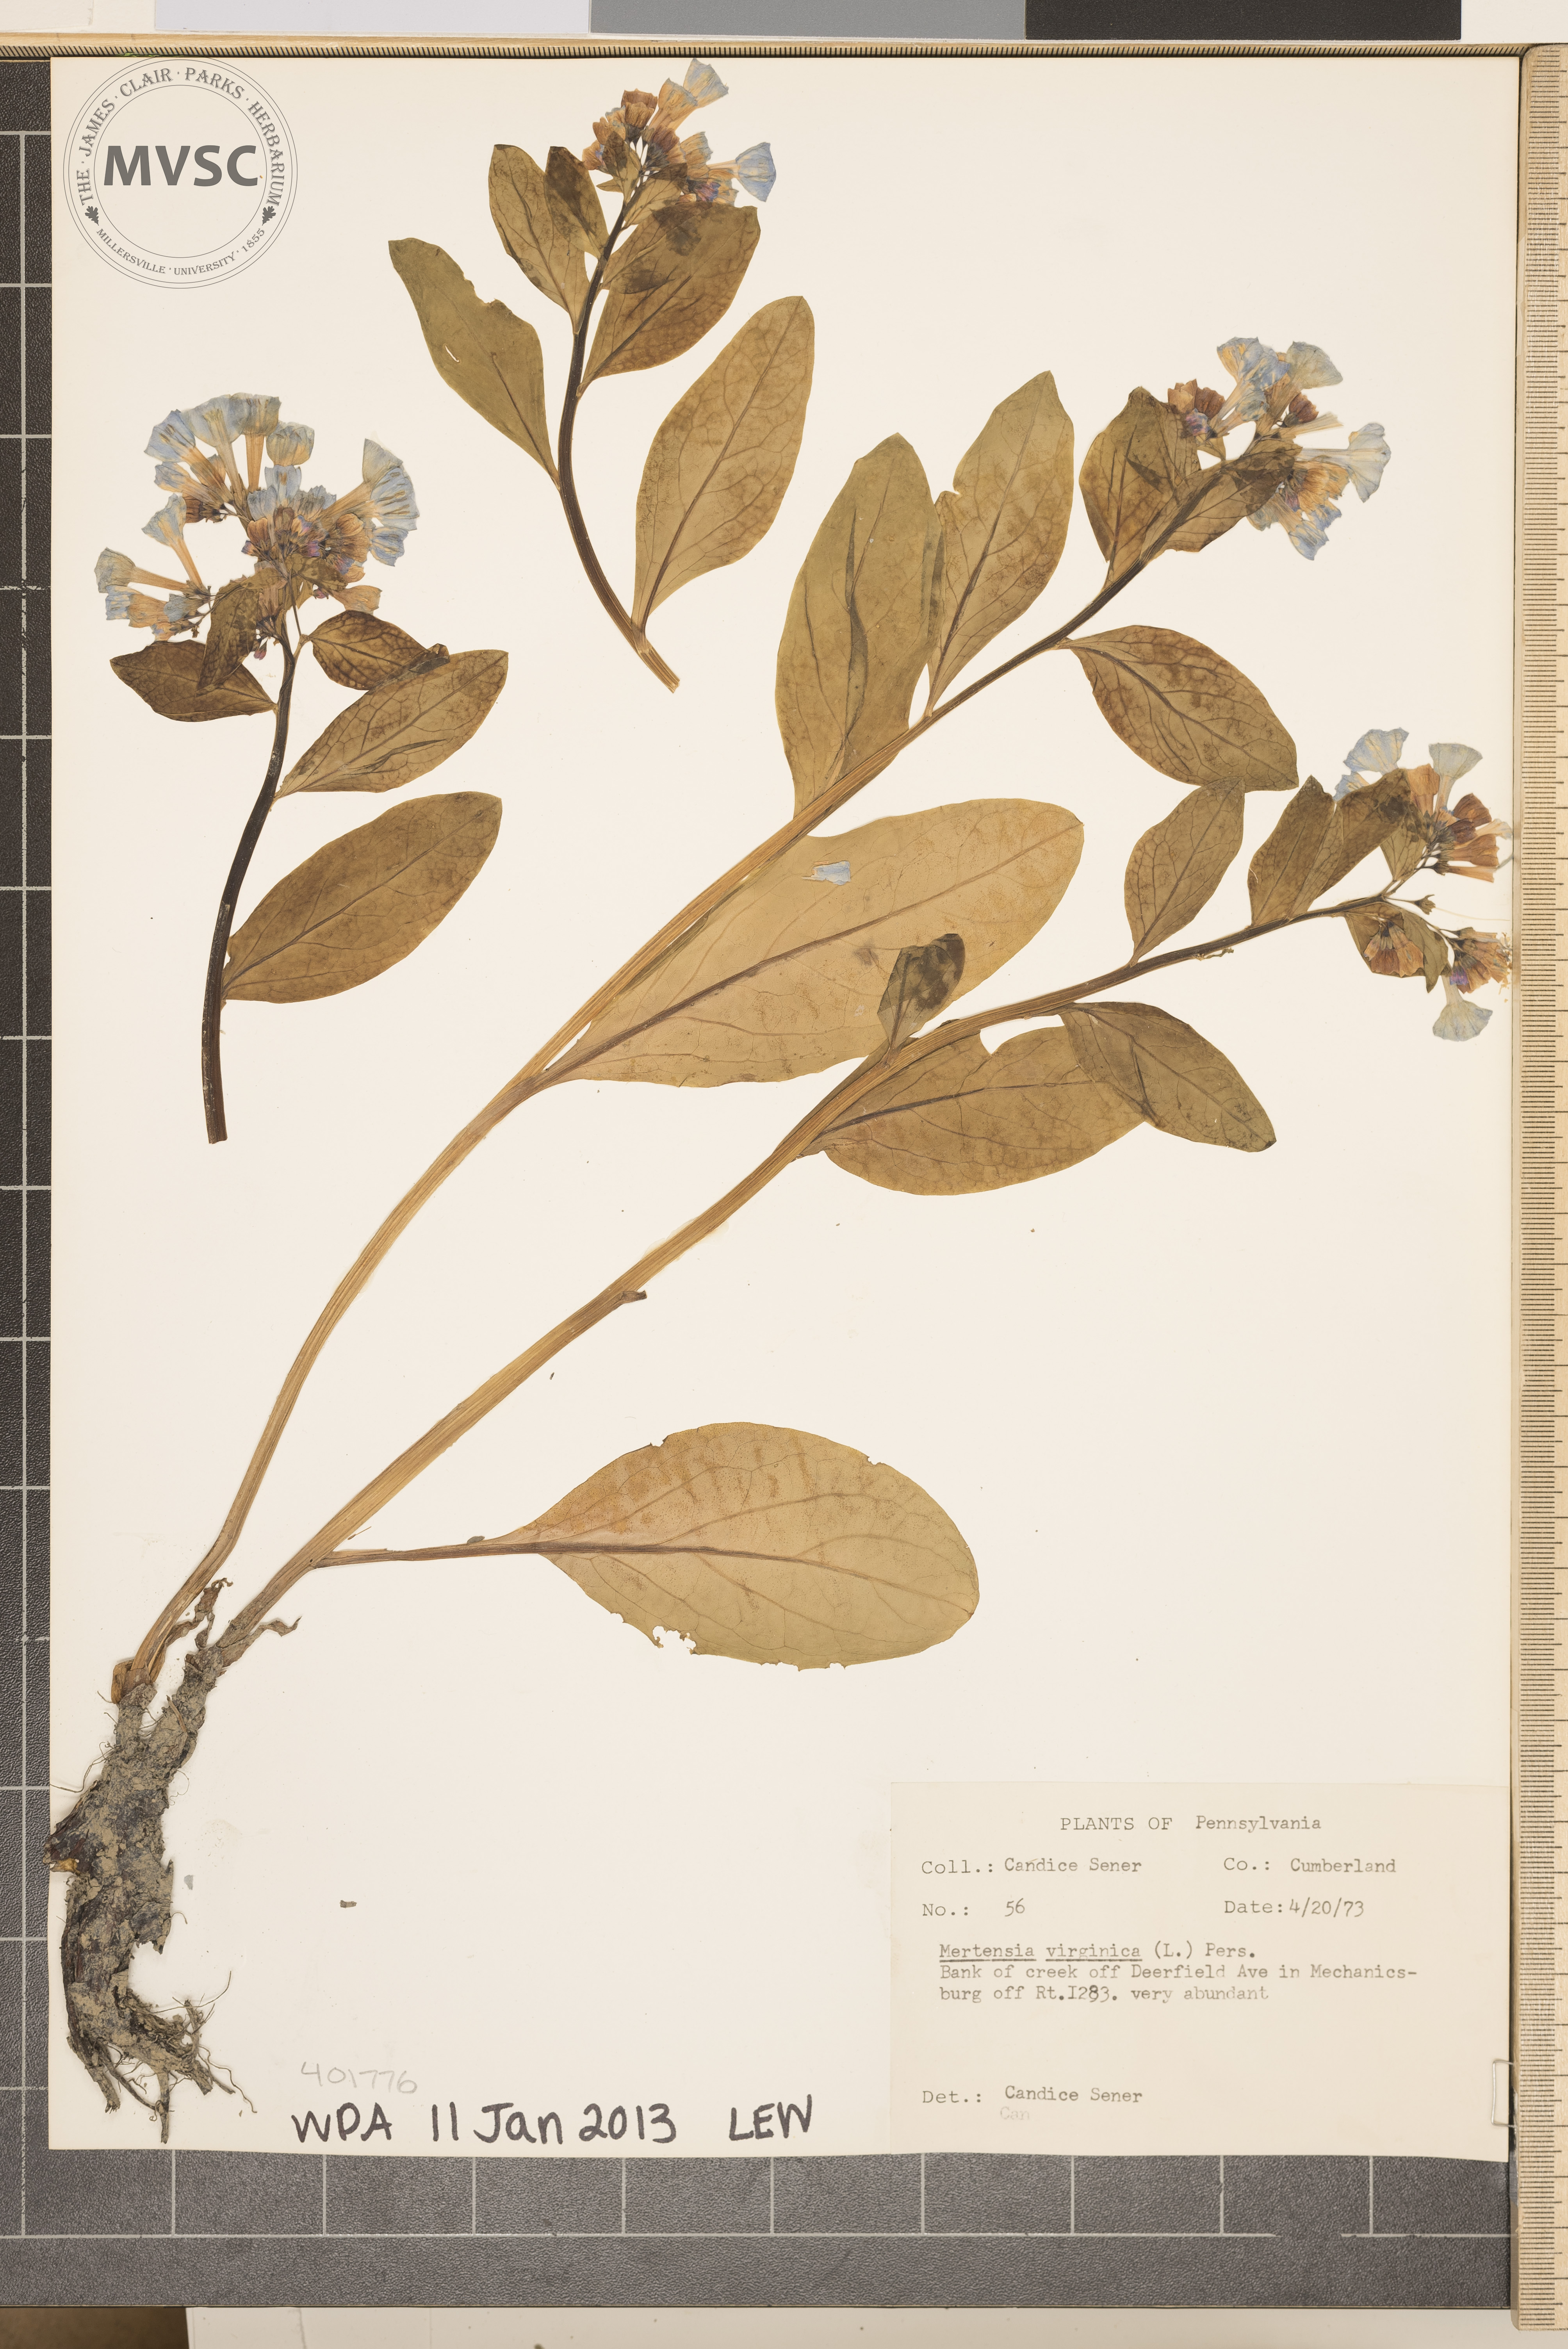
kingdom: Plantae
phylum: Tracheophyta
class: Magnoliopsida
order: Boraginales
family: Boraginaceae
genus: Mertensia
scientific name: Mertensia virginica
